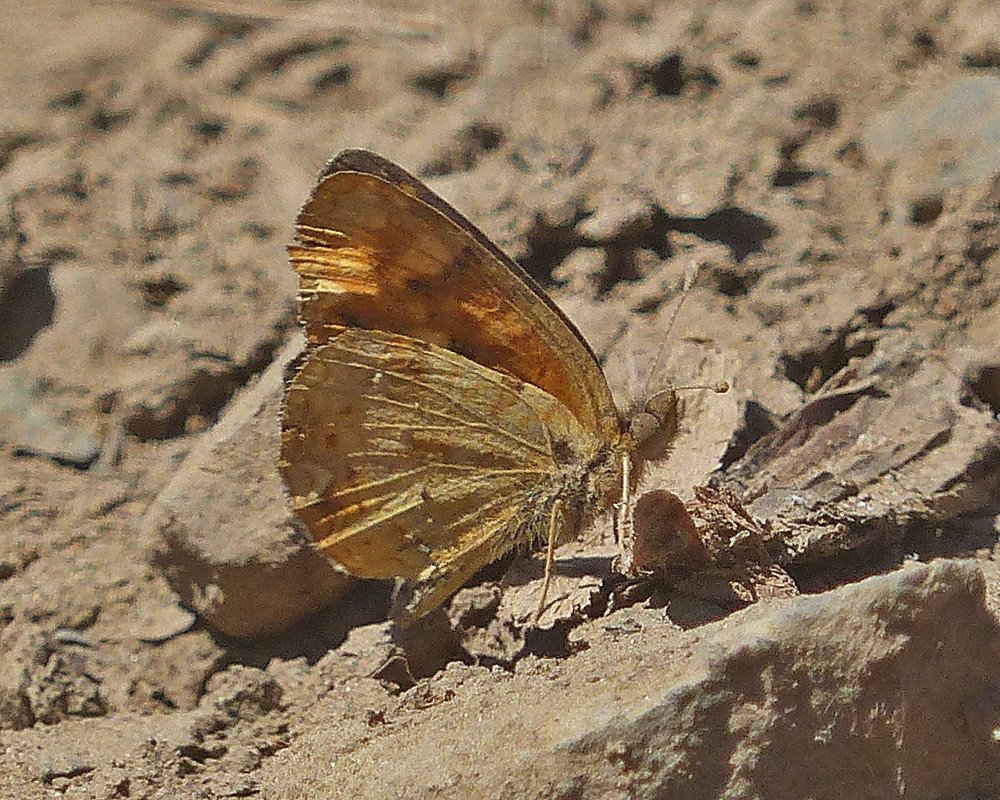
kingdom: Animalia
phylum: Arthropoda
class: Insecta
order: Lepidoptera
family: Nymphalidae
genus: Phyciodes
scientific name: Phyciodes tharos
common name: Field Crescent
